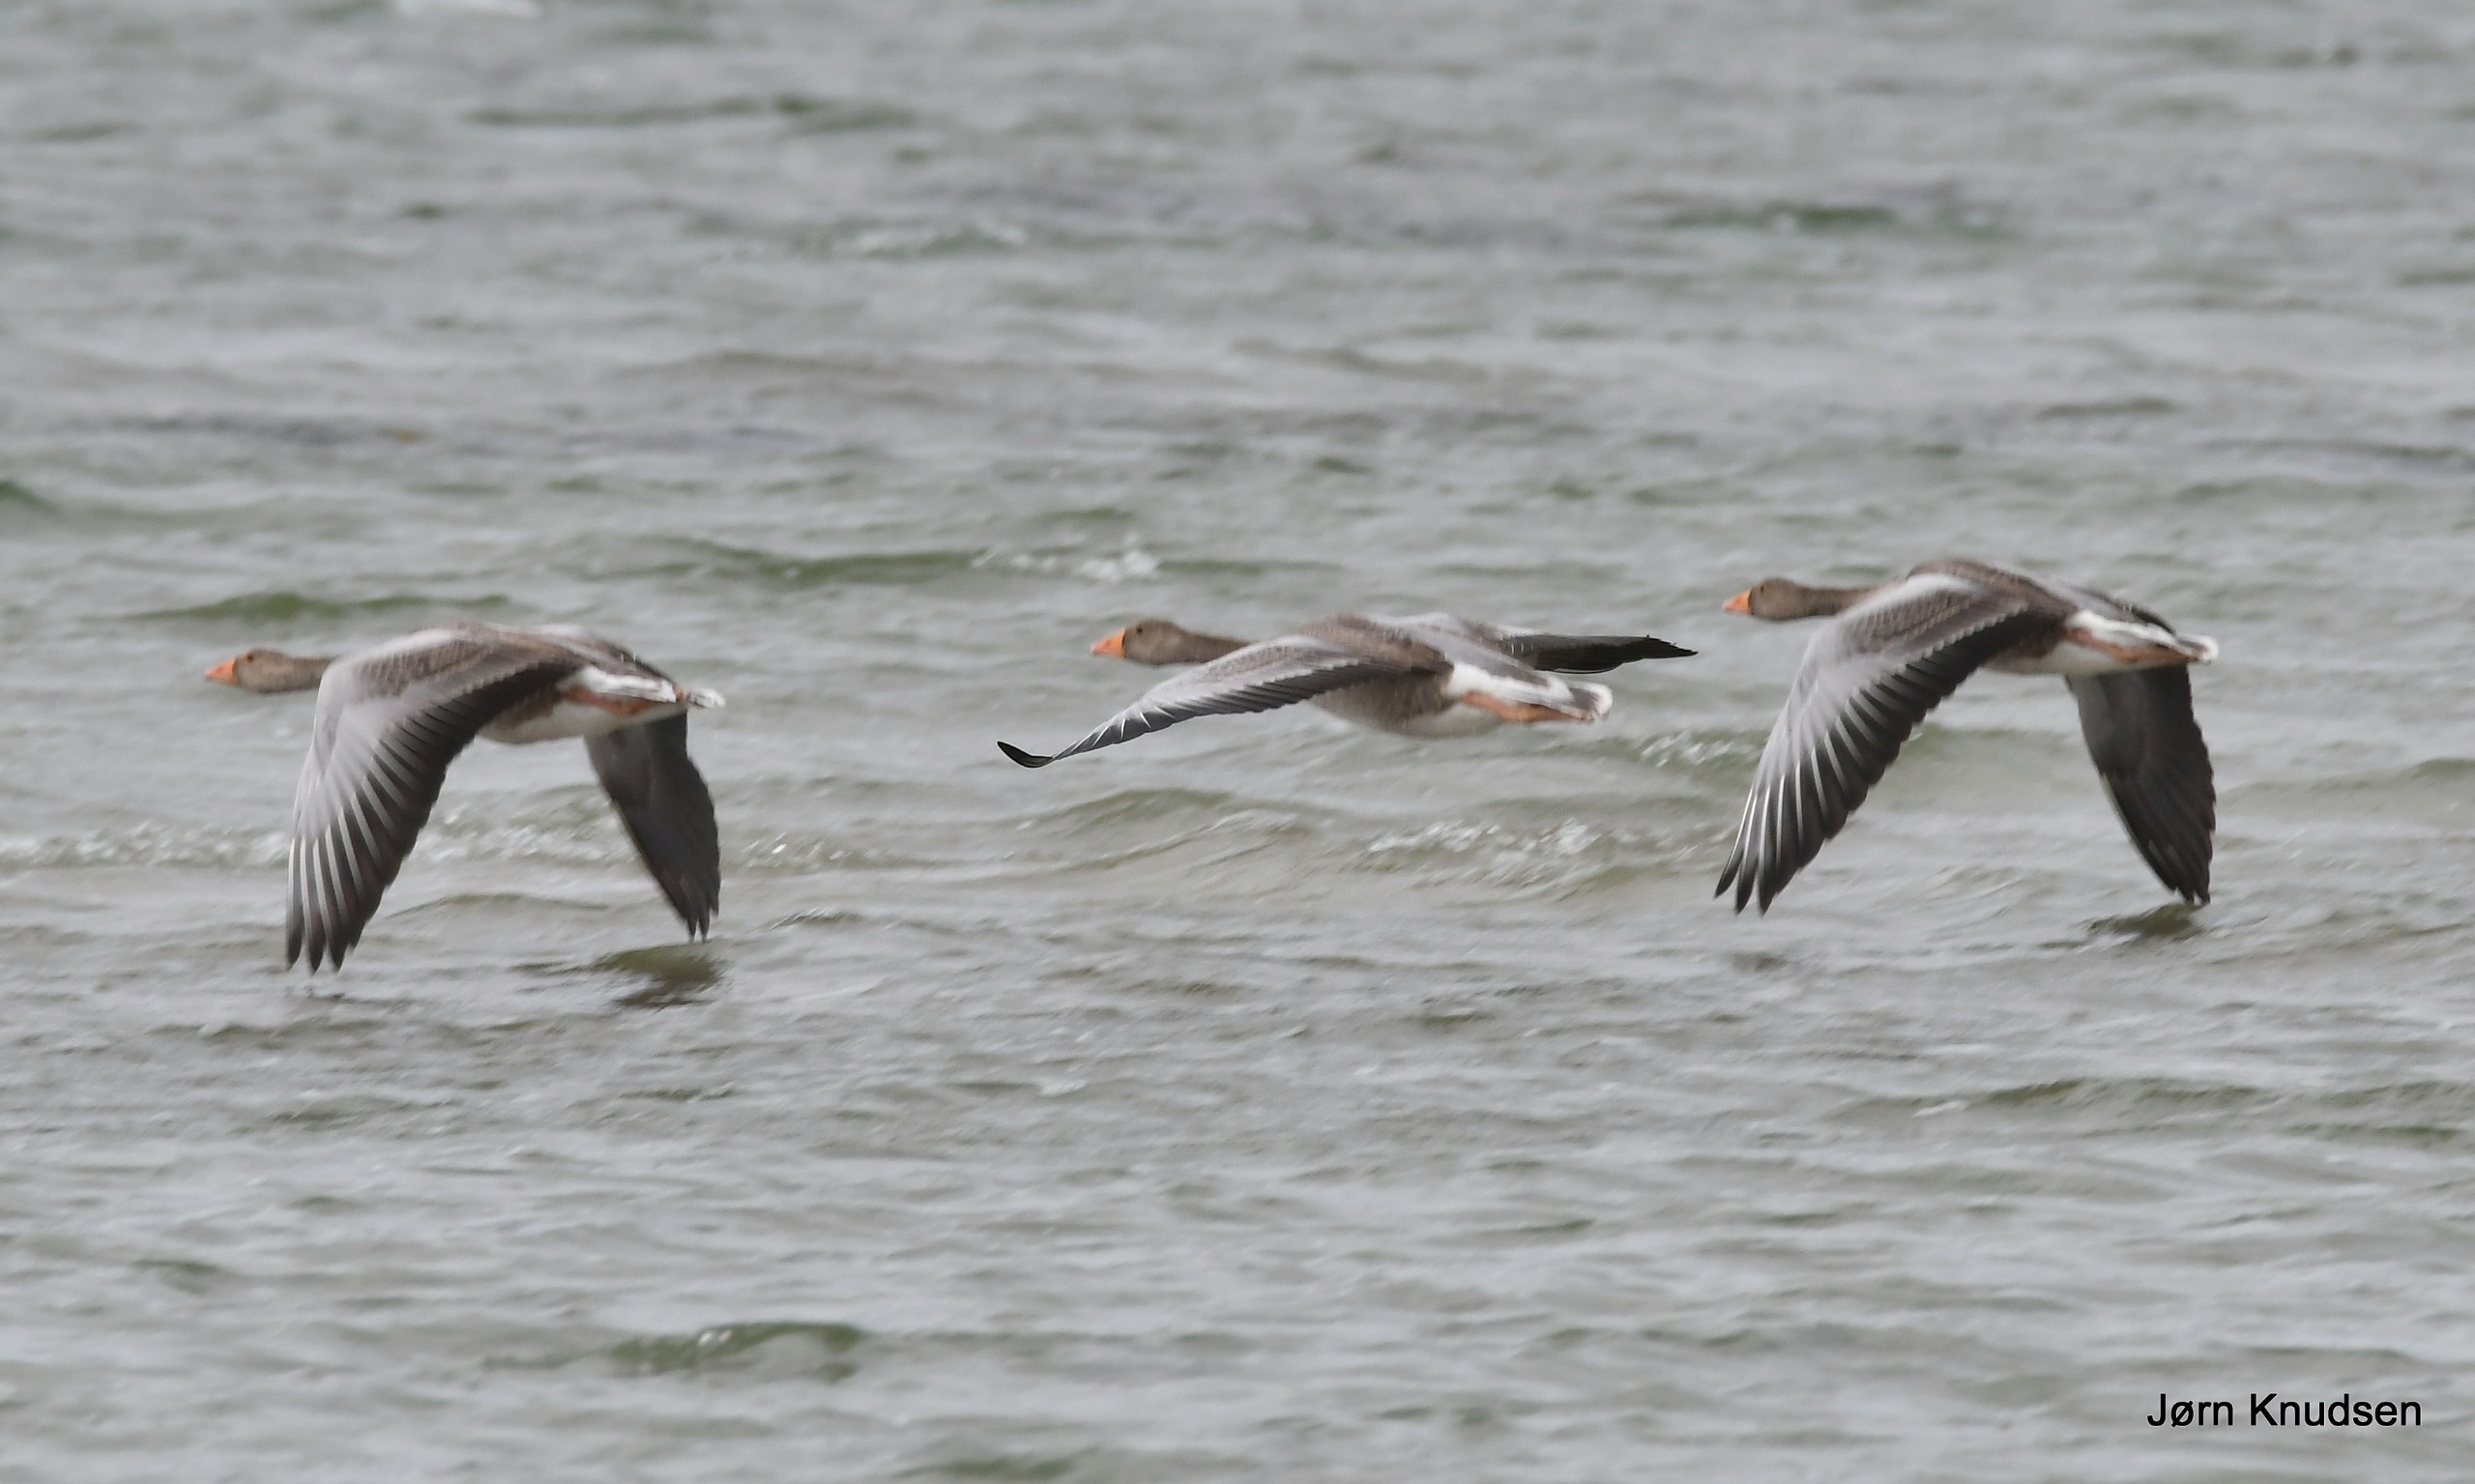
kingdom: Animalia
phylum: Chordata
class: Aves
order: Anseriformes
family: Anatidae
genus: Anser
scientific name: Anser anser
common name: Grågås
